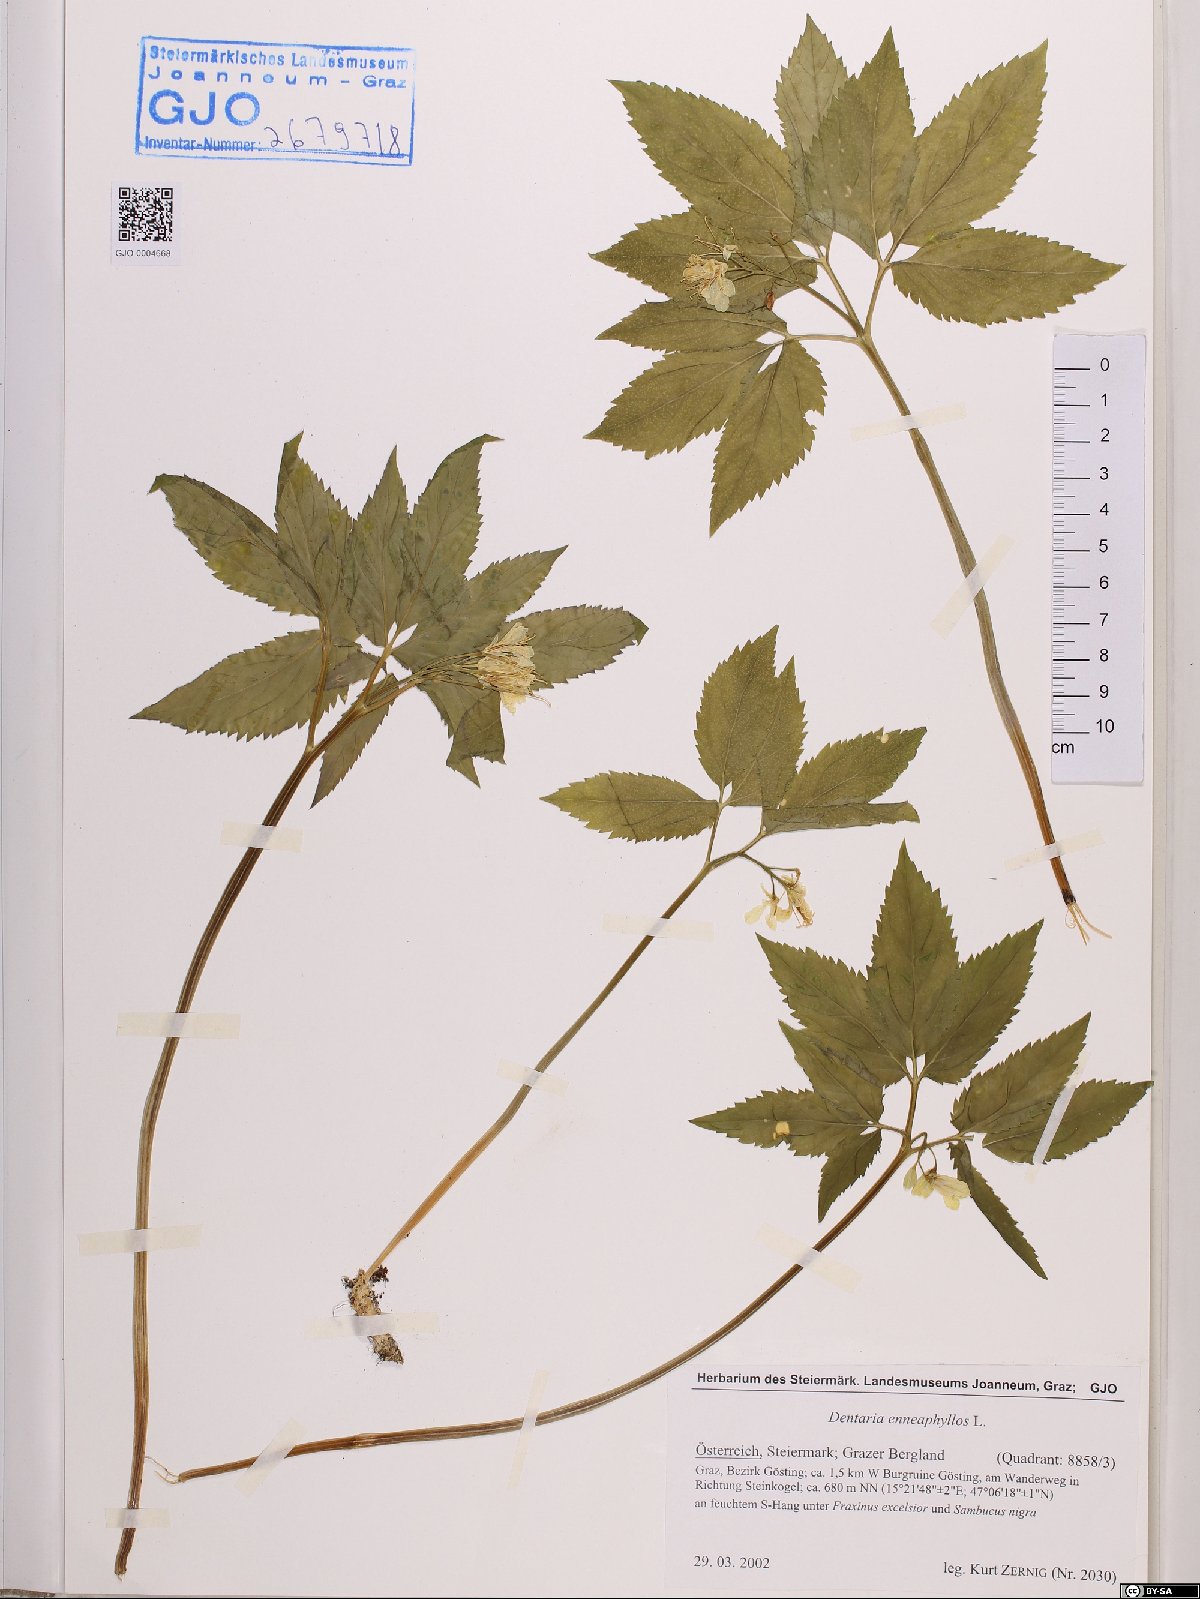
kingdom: Plantae
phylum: Tracheophyta
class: Magnoliopsida
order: Brassicales
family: Brassicaceae
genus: Cardamine
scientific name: Cardamine enneaphyllos
